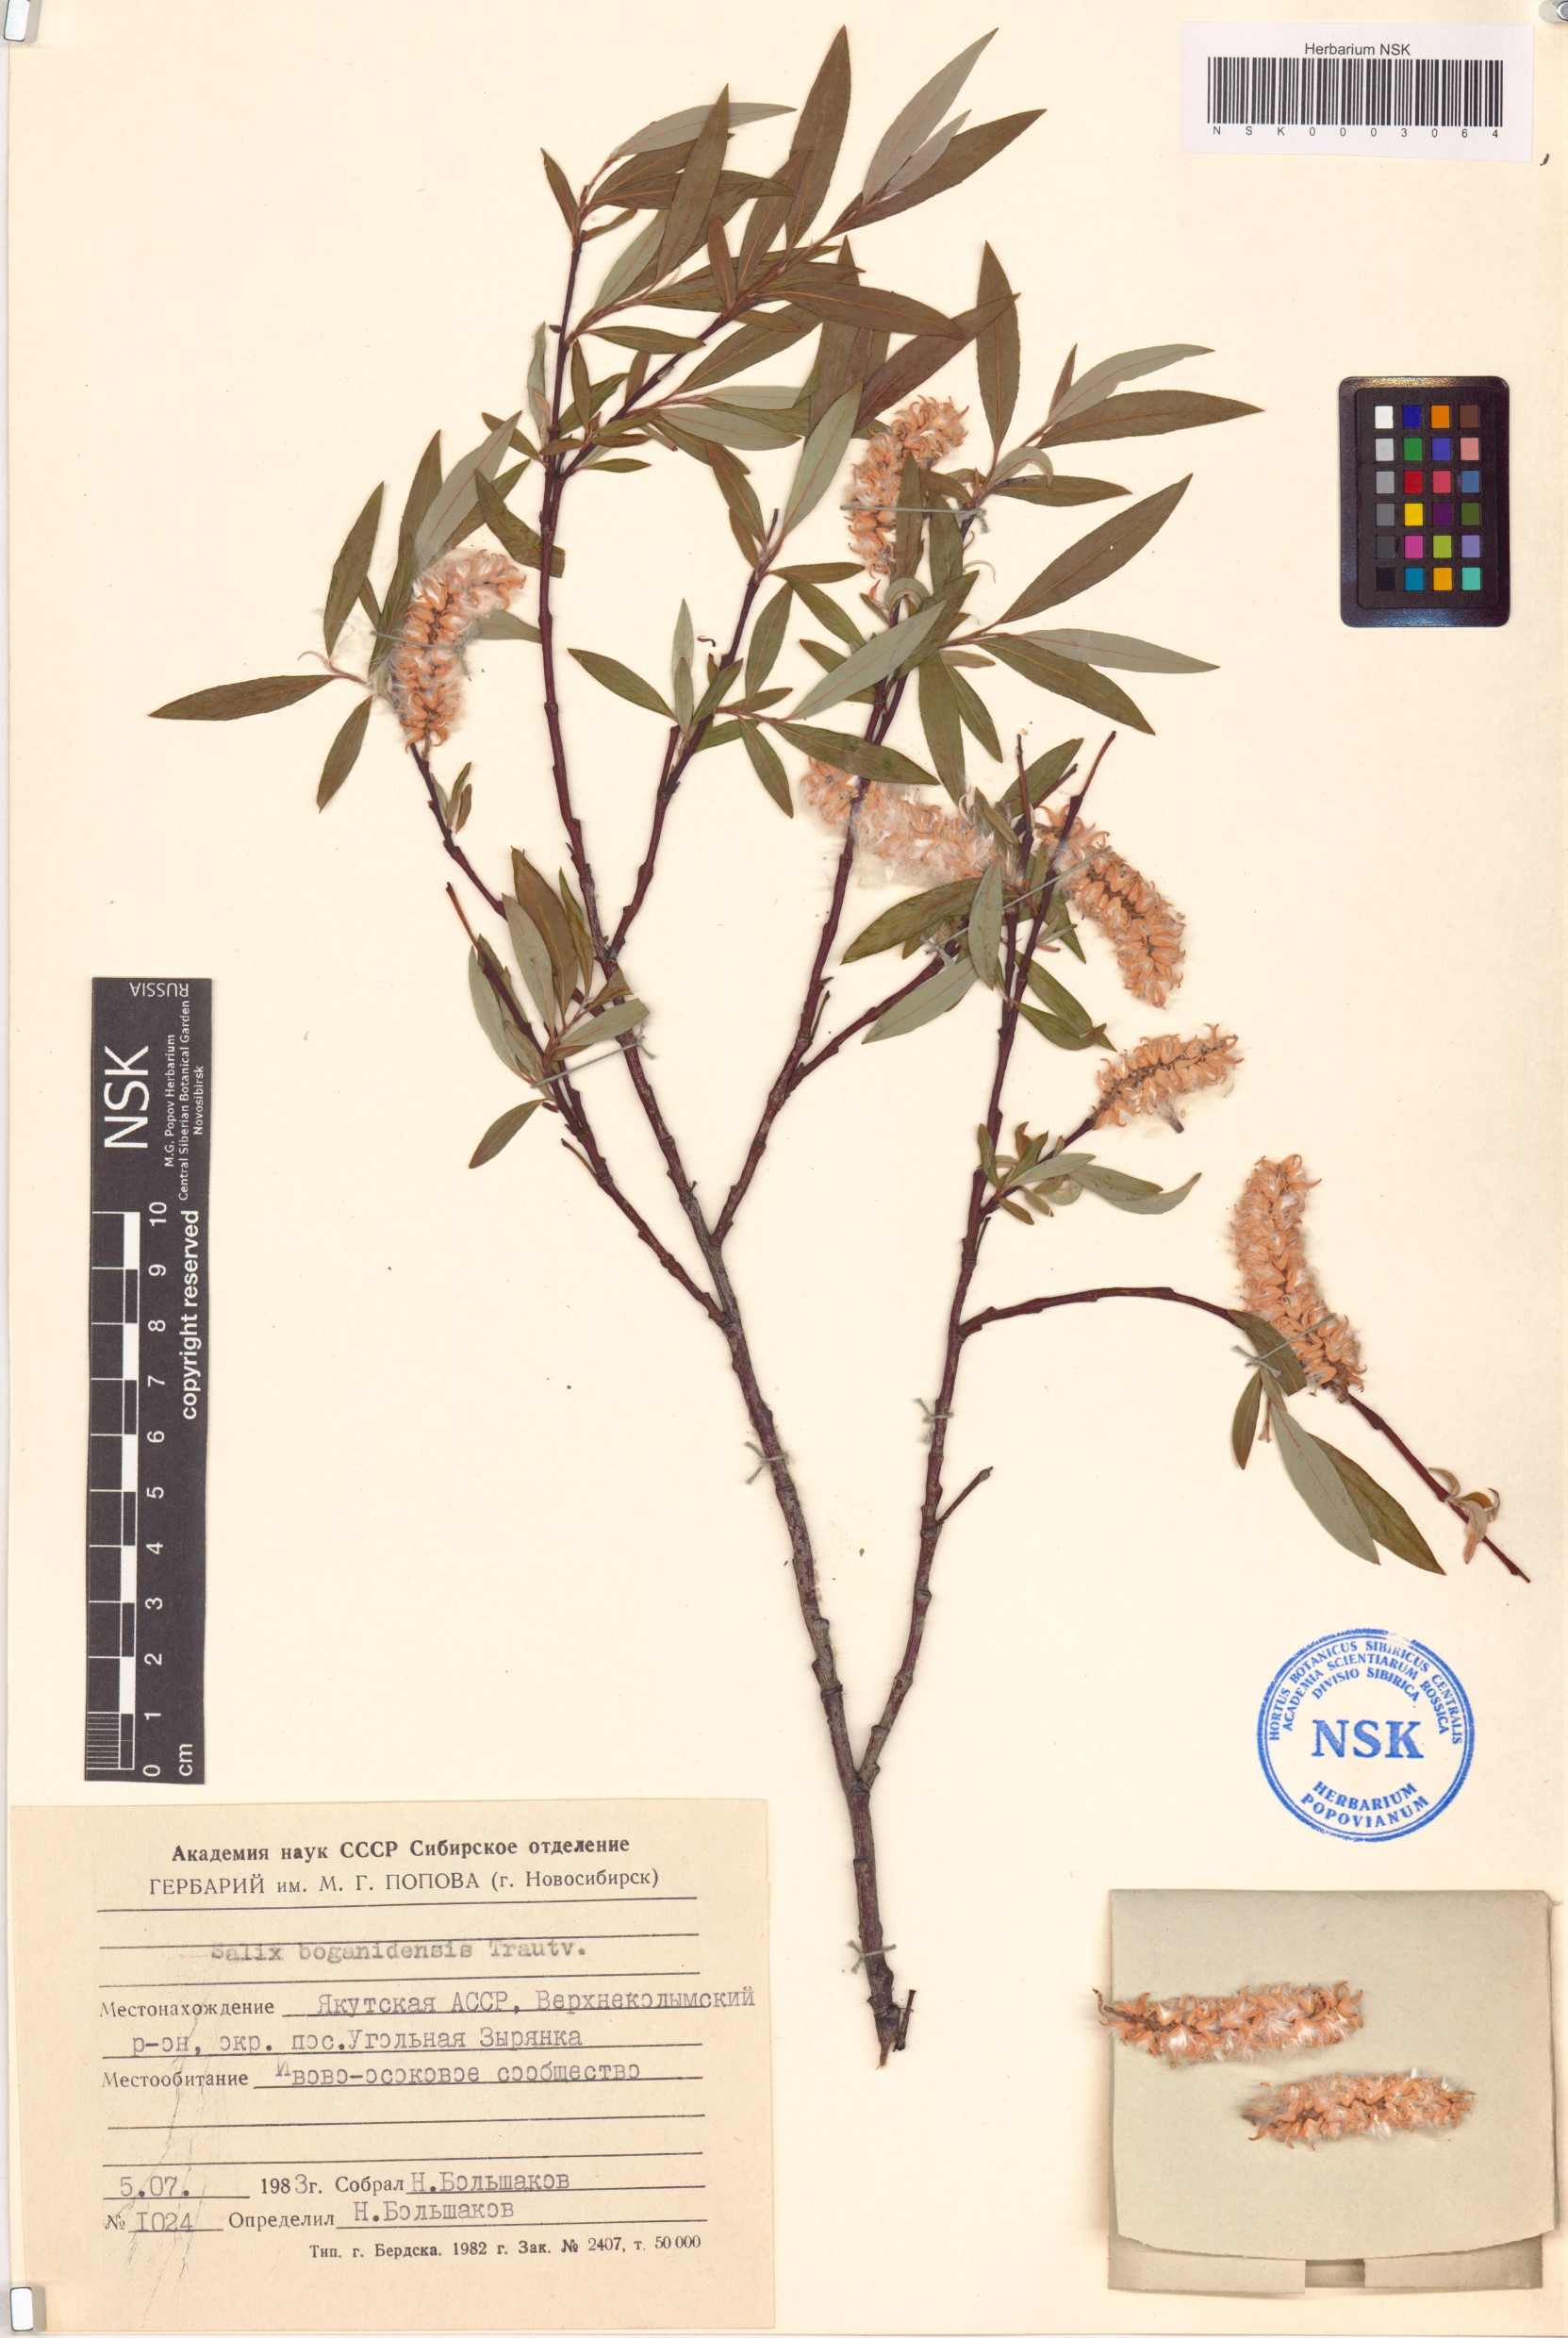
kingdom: Plantae
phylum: Tracheophyta
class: Magnoliopsida
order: Malpighiales
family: Salicaceae
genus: Salix
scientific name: Salix boganidensis
